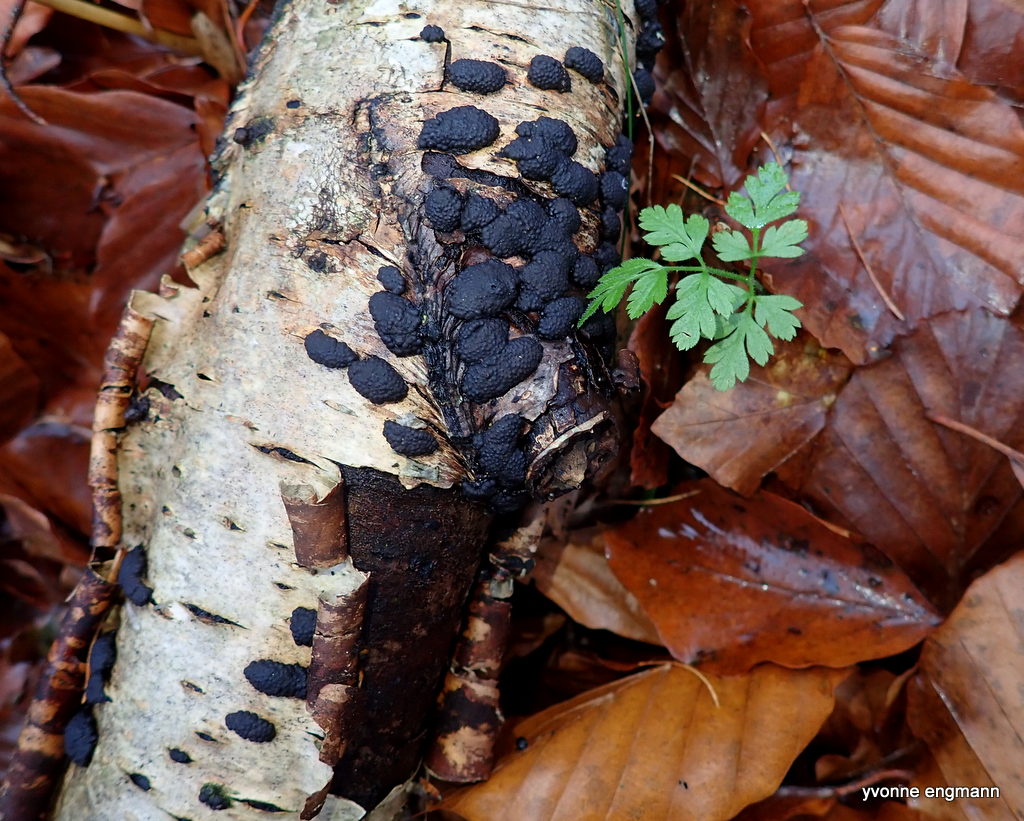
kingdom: Fungi
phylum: Ascomycota
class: Sordariomycetes
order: Xylariales
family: Hypoxylaceae
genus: Jackrogersella
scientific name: Jackrogersella multiformis
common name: foranderlig kulbær
